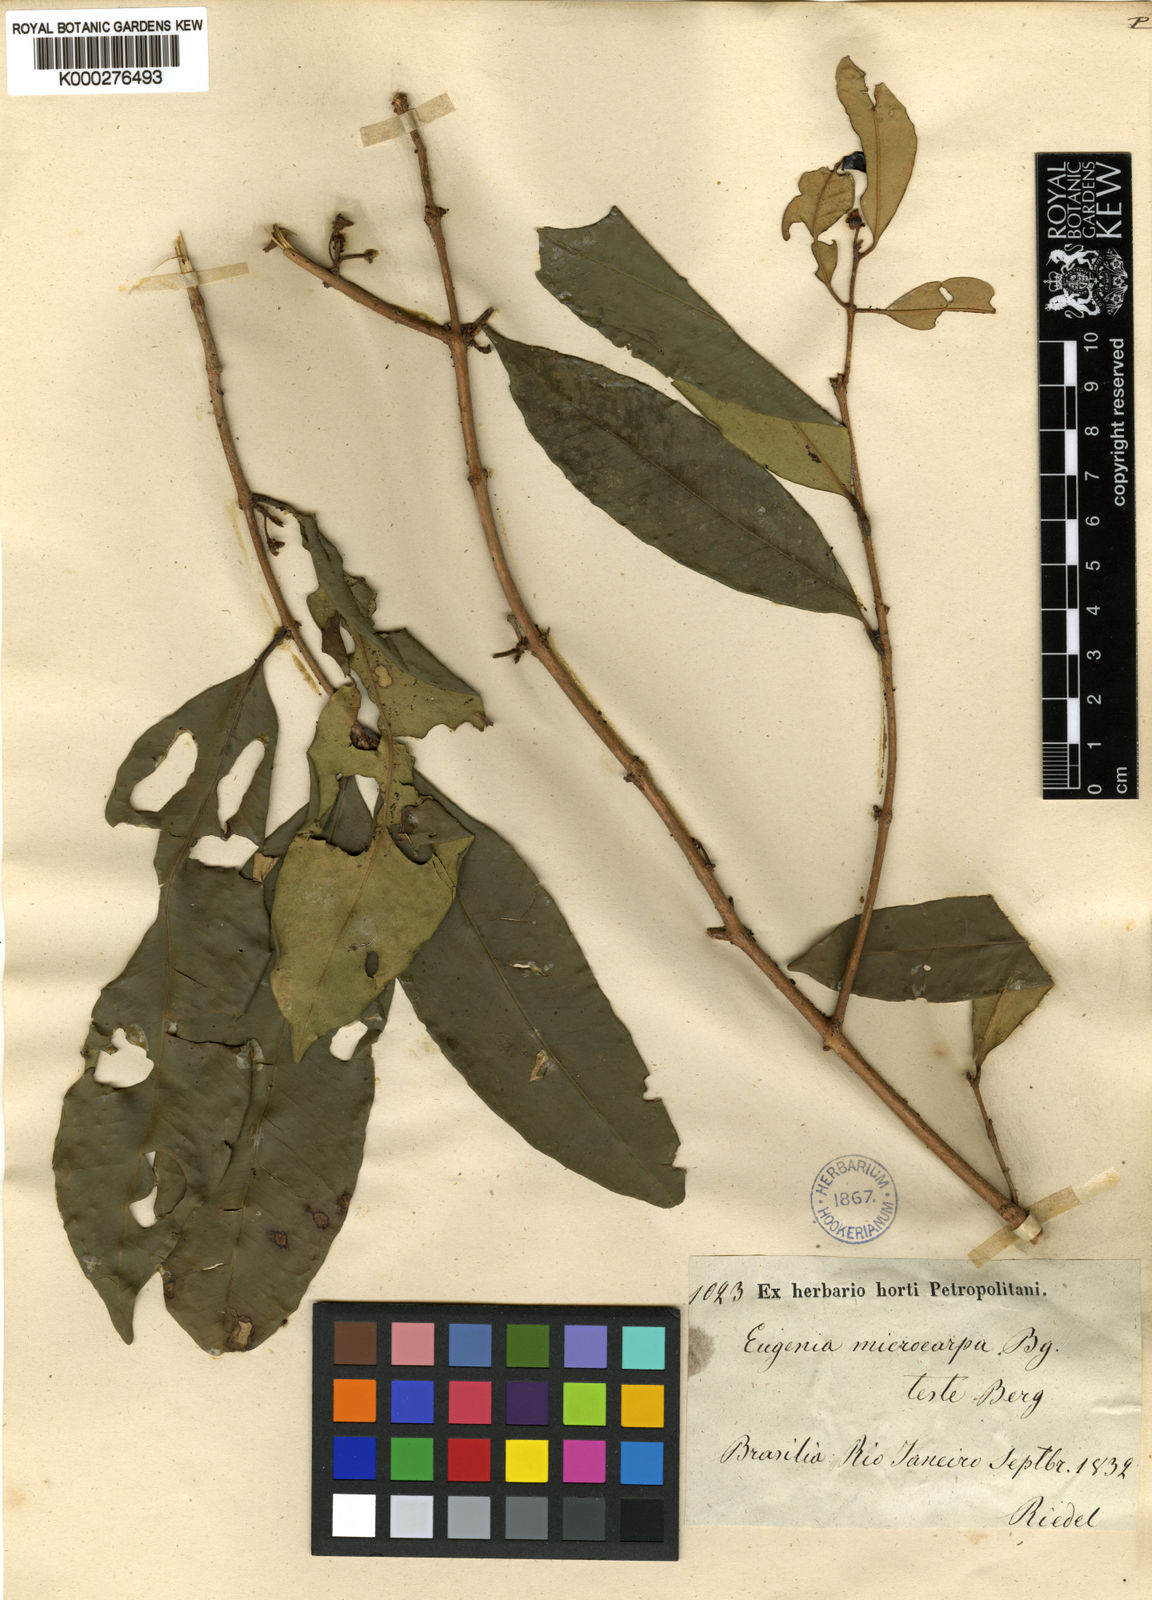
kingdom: Plantae
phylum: Tracheophyta
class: Magnoliopsida
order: Myrtales
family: Myrtaceae
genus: Eugenia
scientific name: Eugenia
